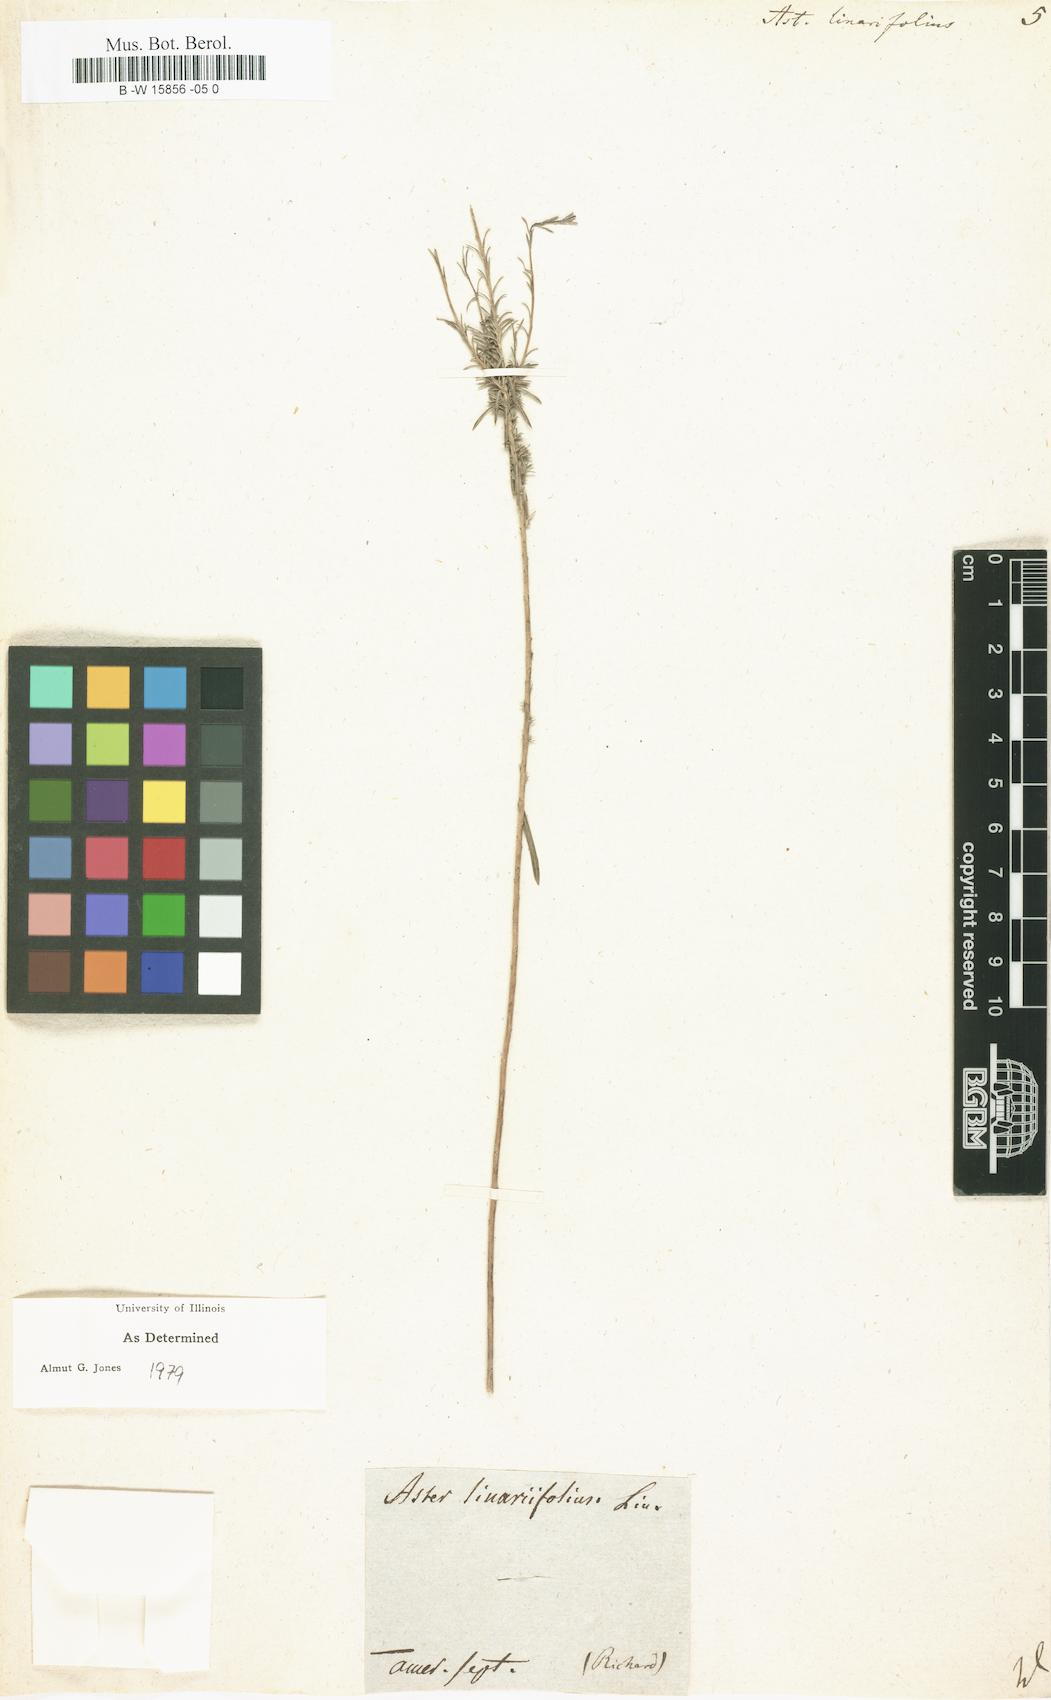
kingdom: Plantae
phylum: Tracheophyta
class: Magnoliopsida
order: Asterales
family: Asteraceae
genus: Aster
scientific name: Aster linariifolius
